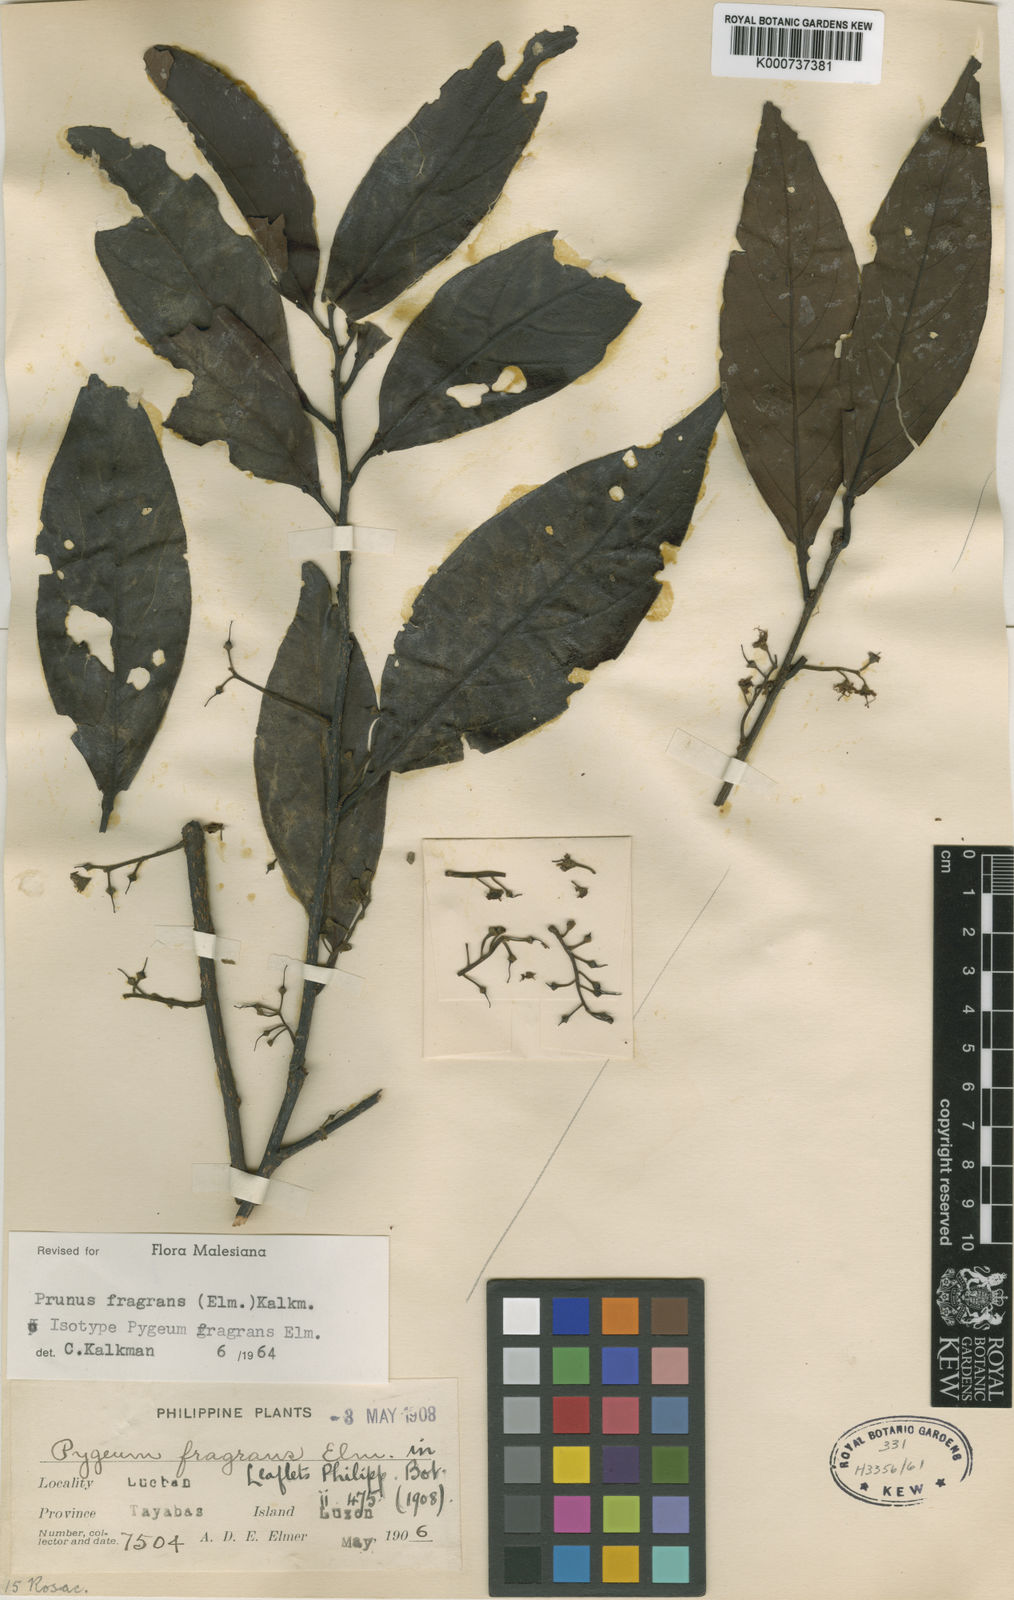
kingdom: Plantae
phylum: Tracheophyta
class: Magnoliopsida
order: Rosales
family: Rosaceae
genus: Prunus
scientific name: Prunus fragrans
